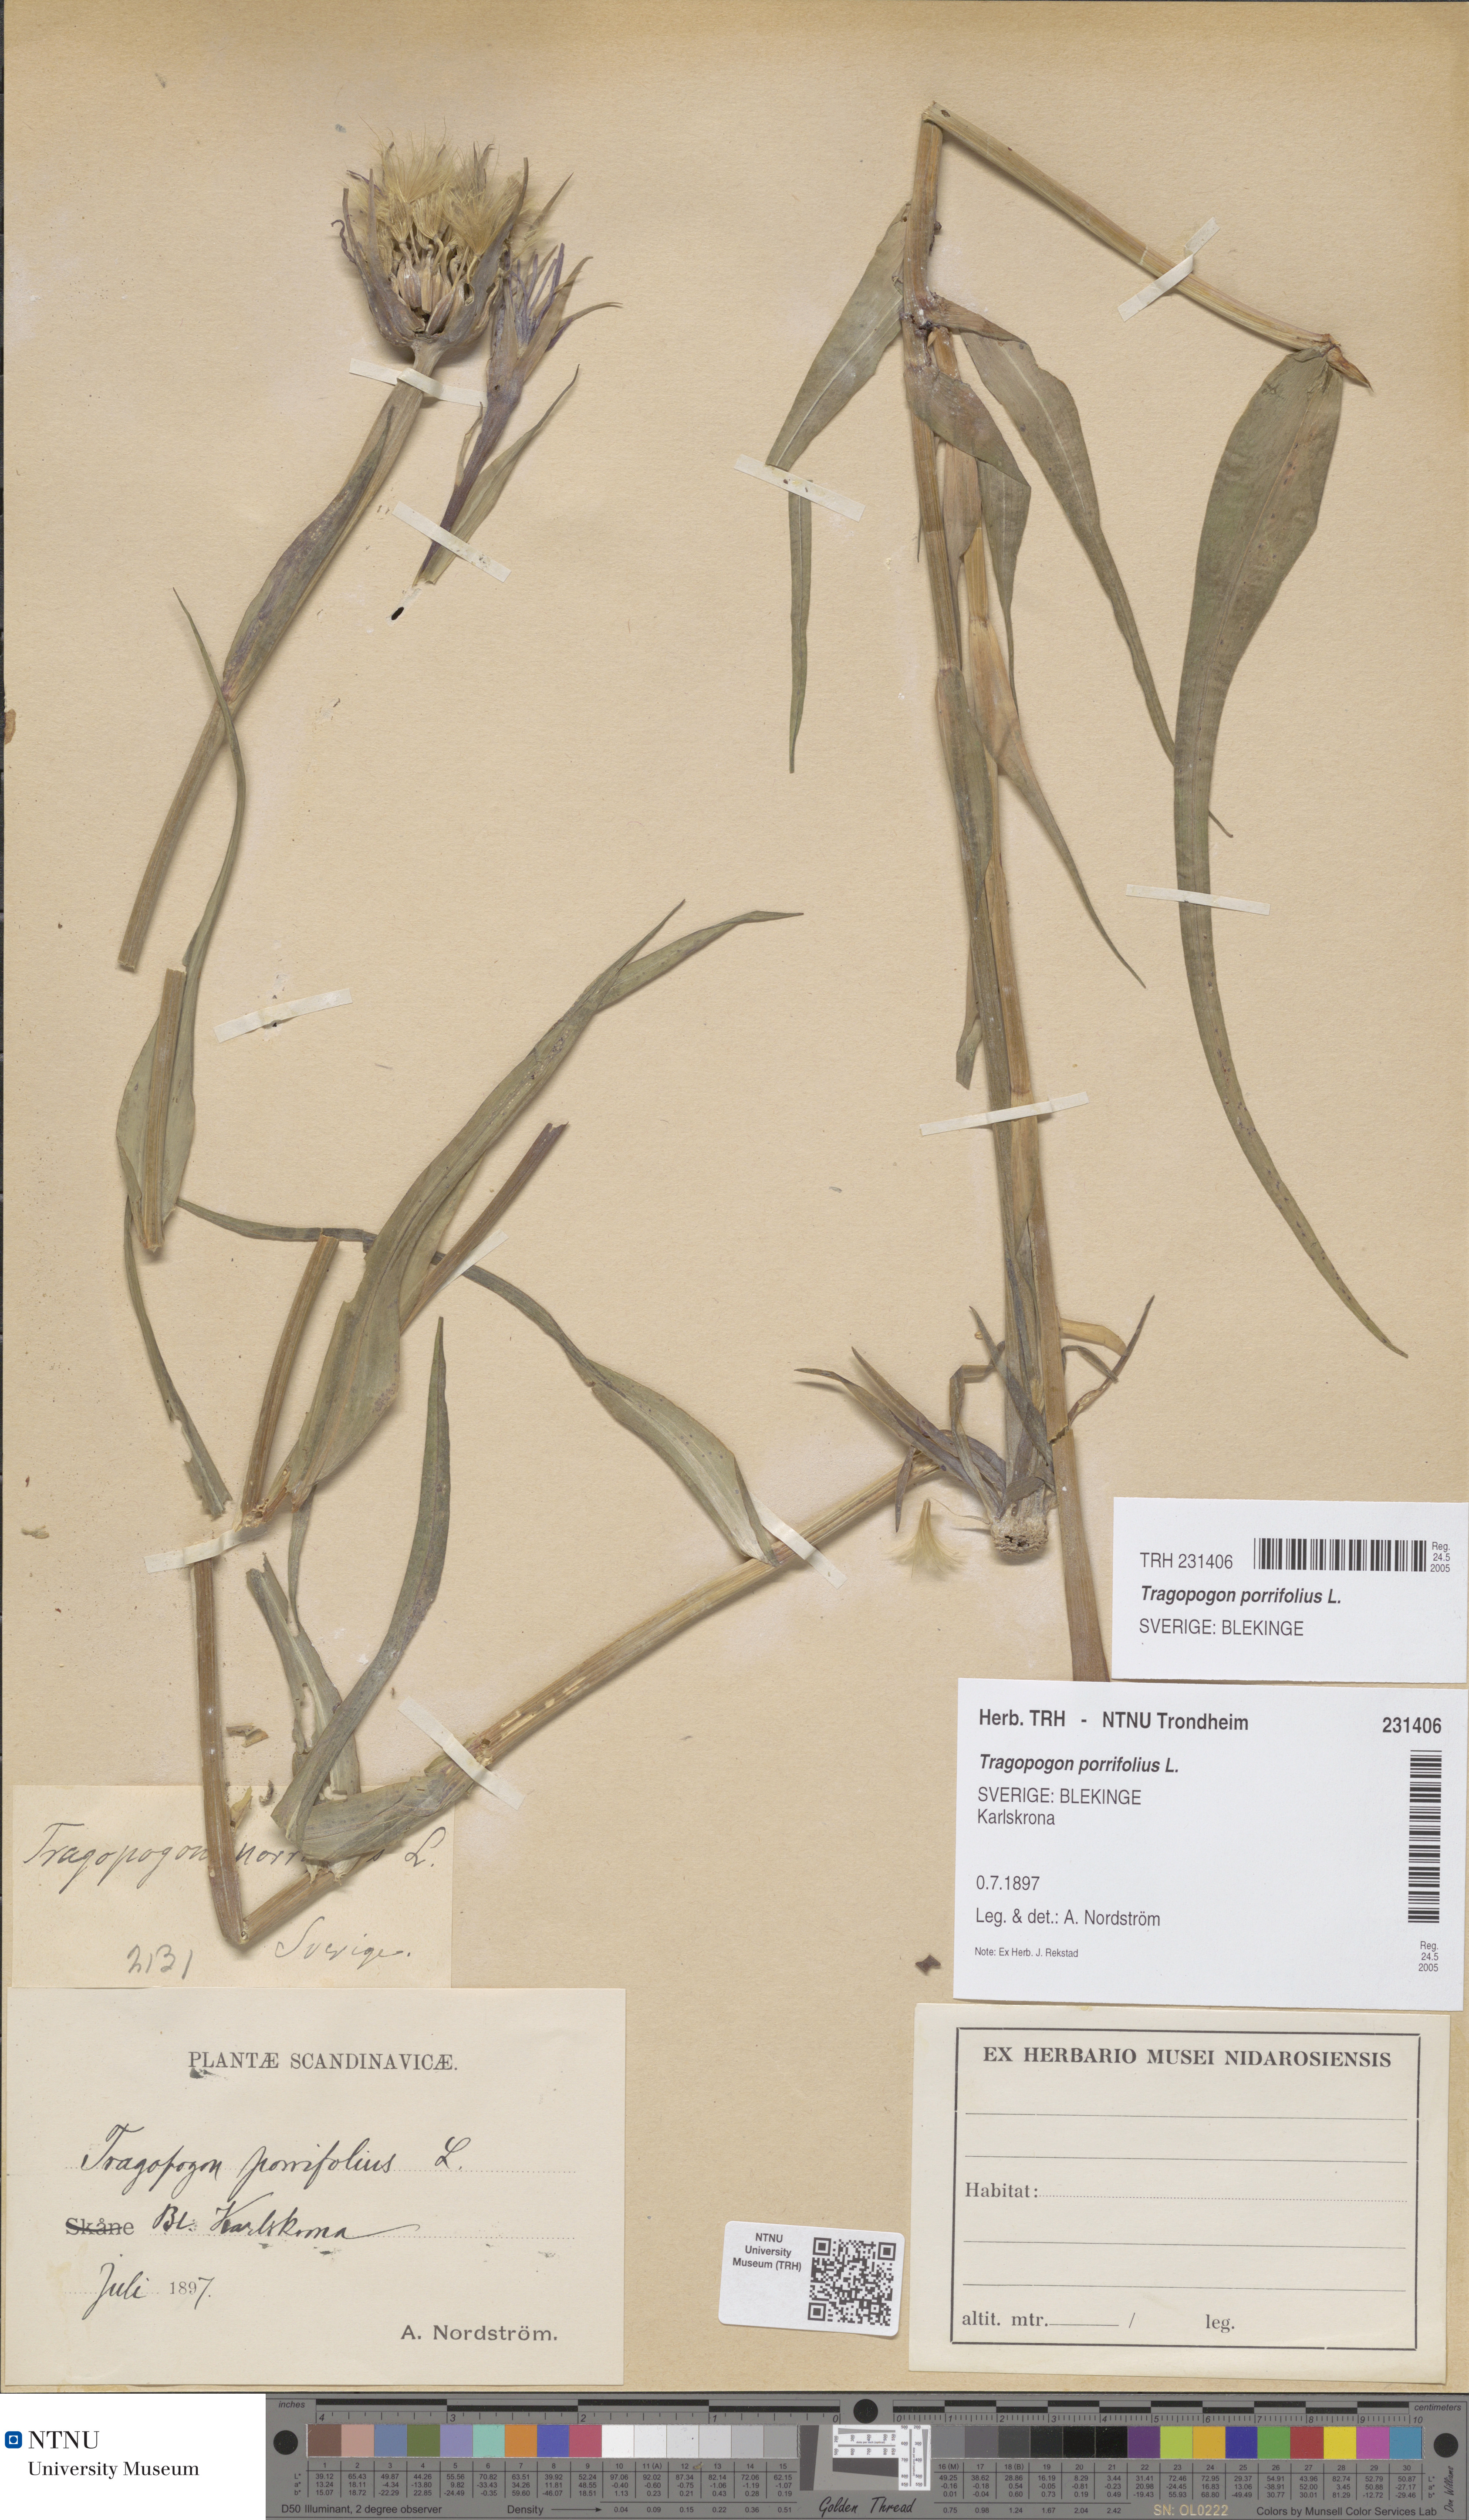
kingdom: Plantae
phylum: Tracheophyta
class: Magnoliopsida
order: Asterales
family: Asteraceae
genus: Tragopogon
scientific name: Tragopogon porrifolius
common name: Salsify
